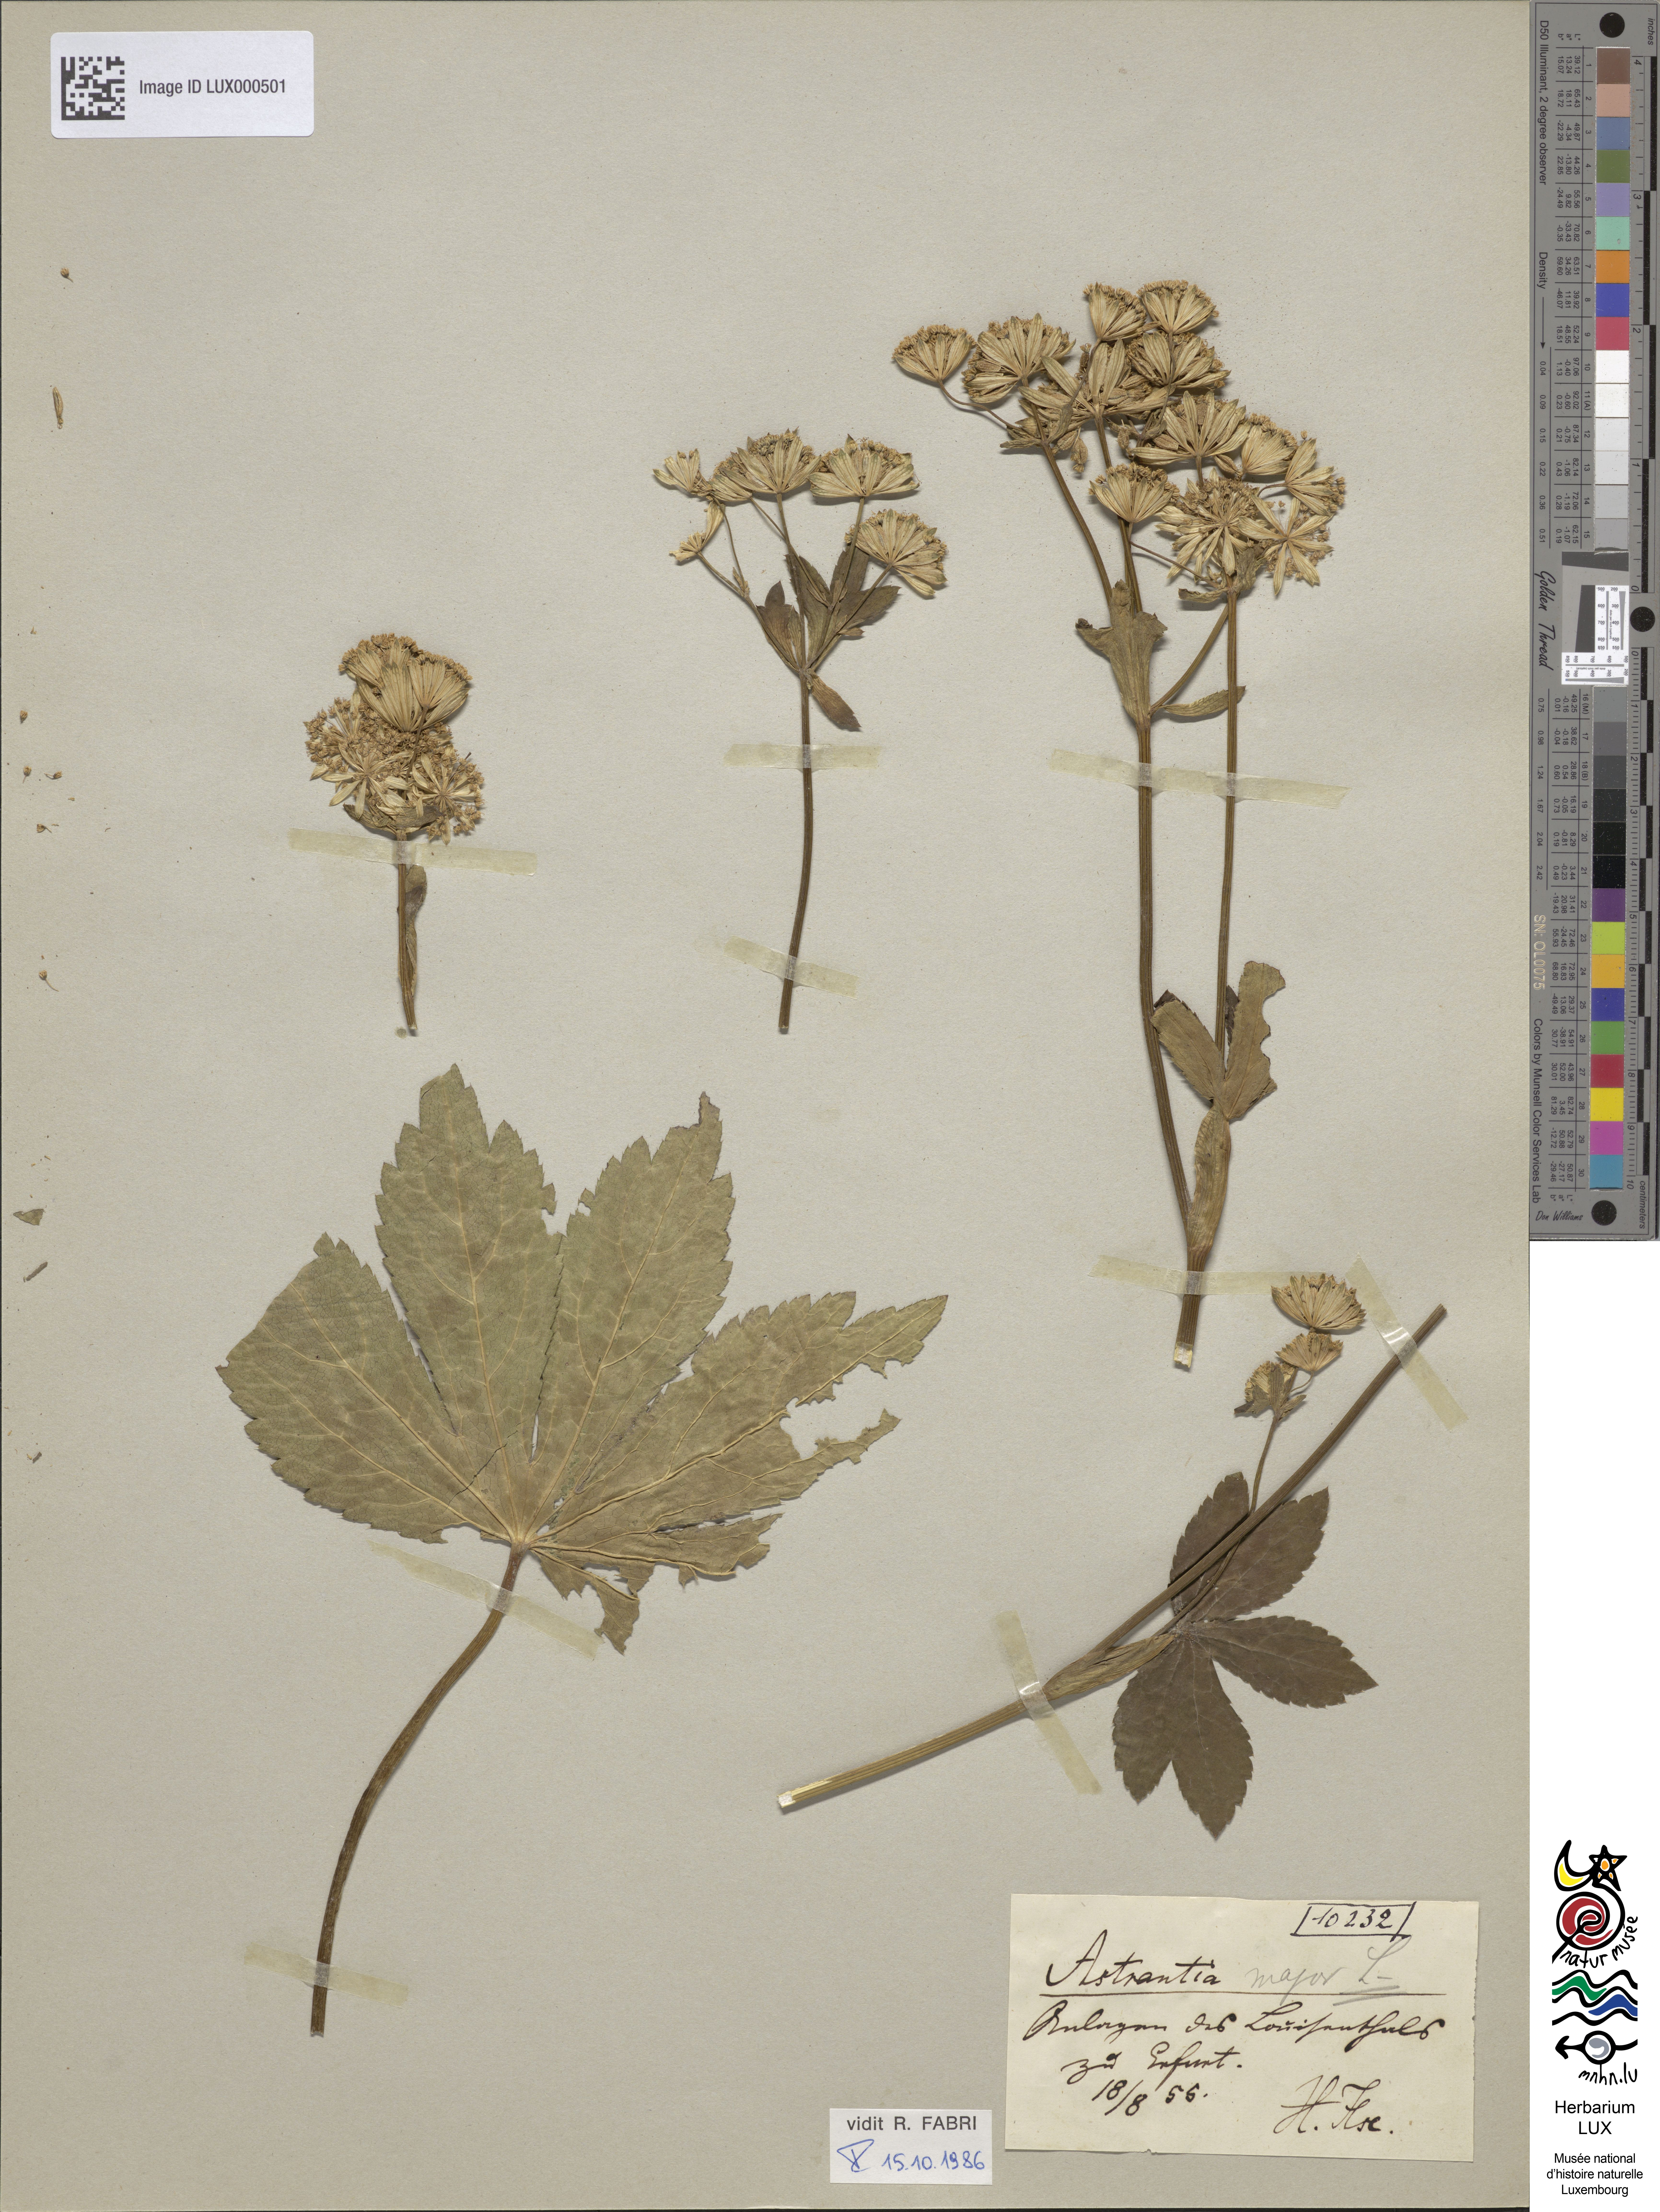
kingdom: Plantae
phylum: Tracheophyta
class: Magnoliopsida
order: Apiales
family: Apiaceae
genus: Astrantia
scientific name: Astrantia major
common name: Greater masterwort
